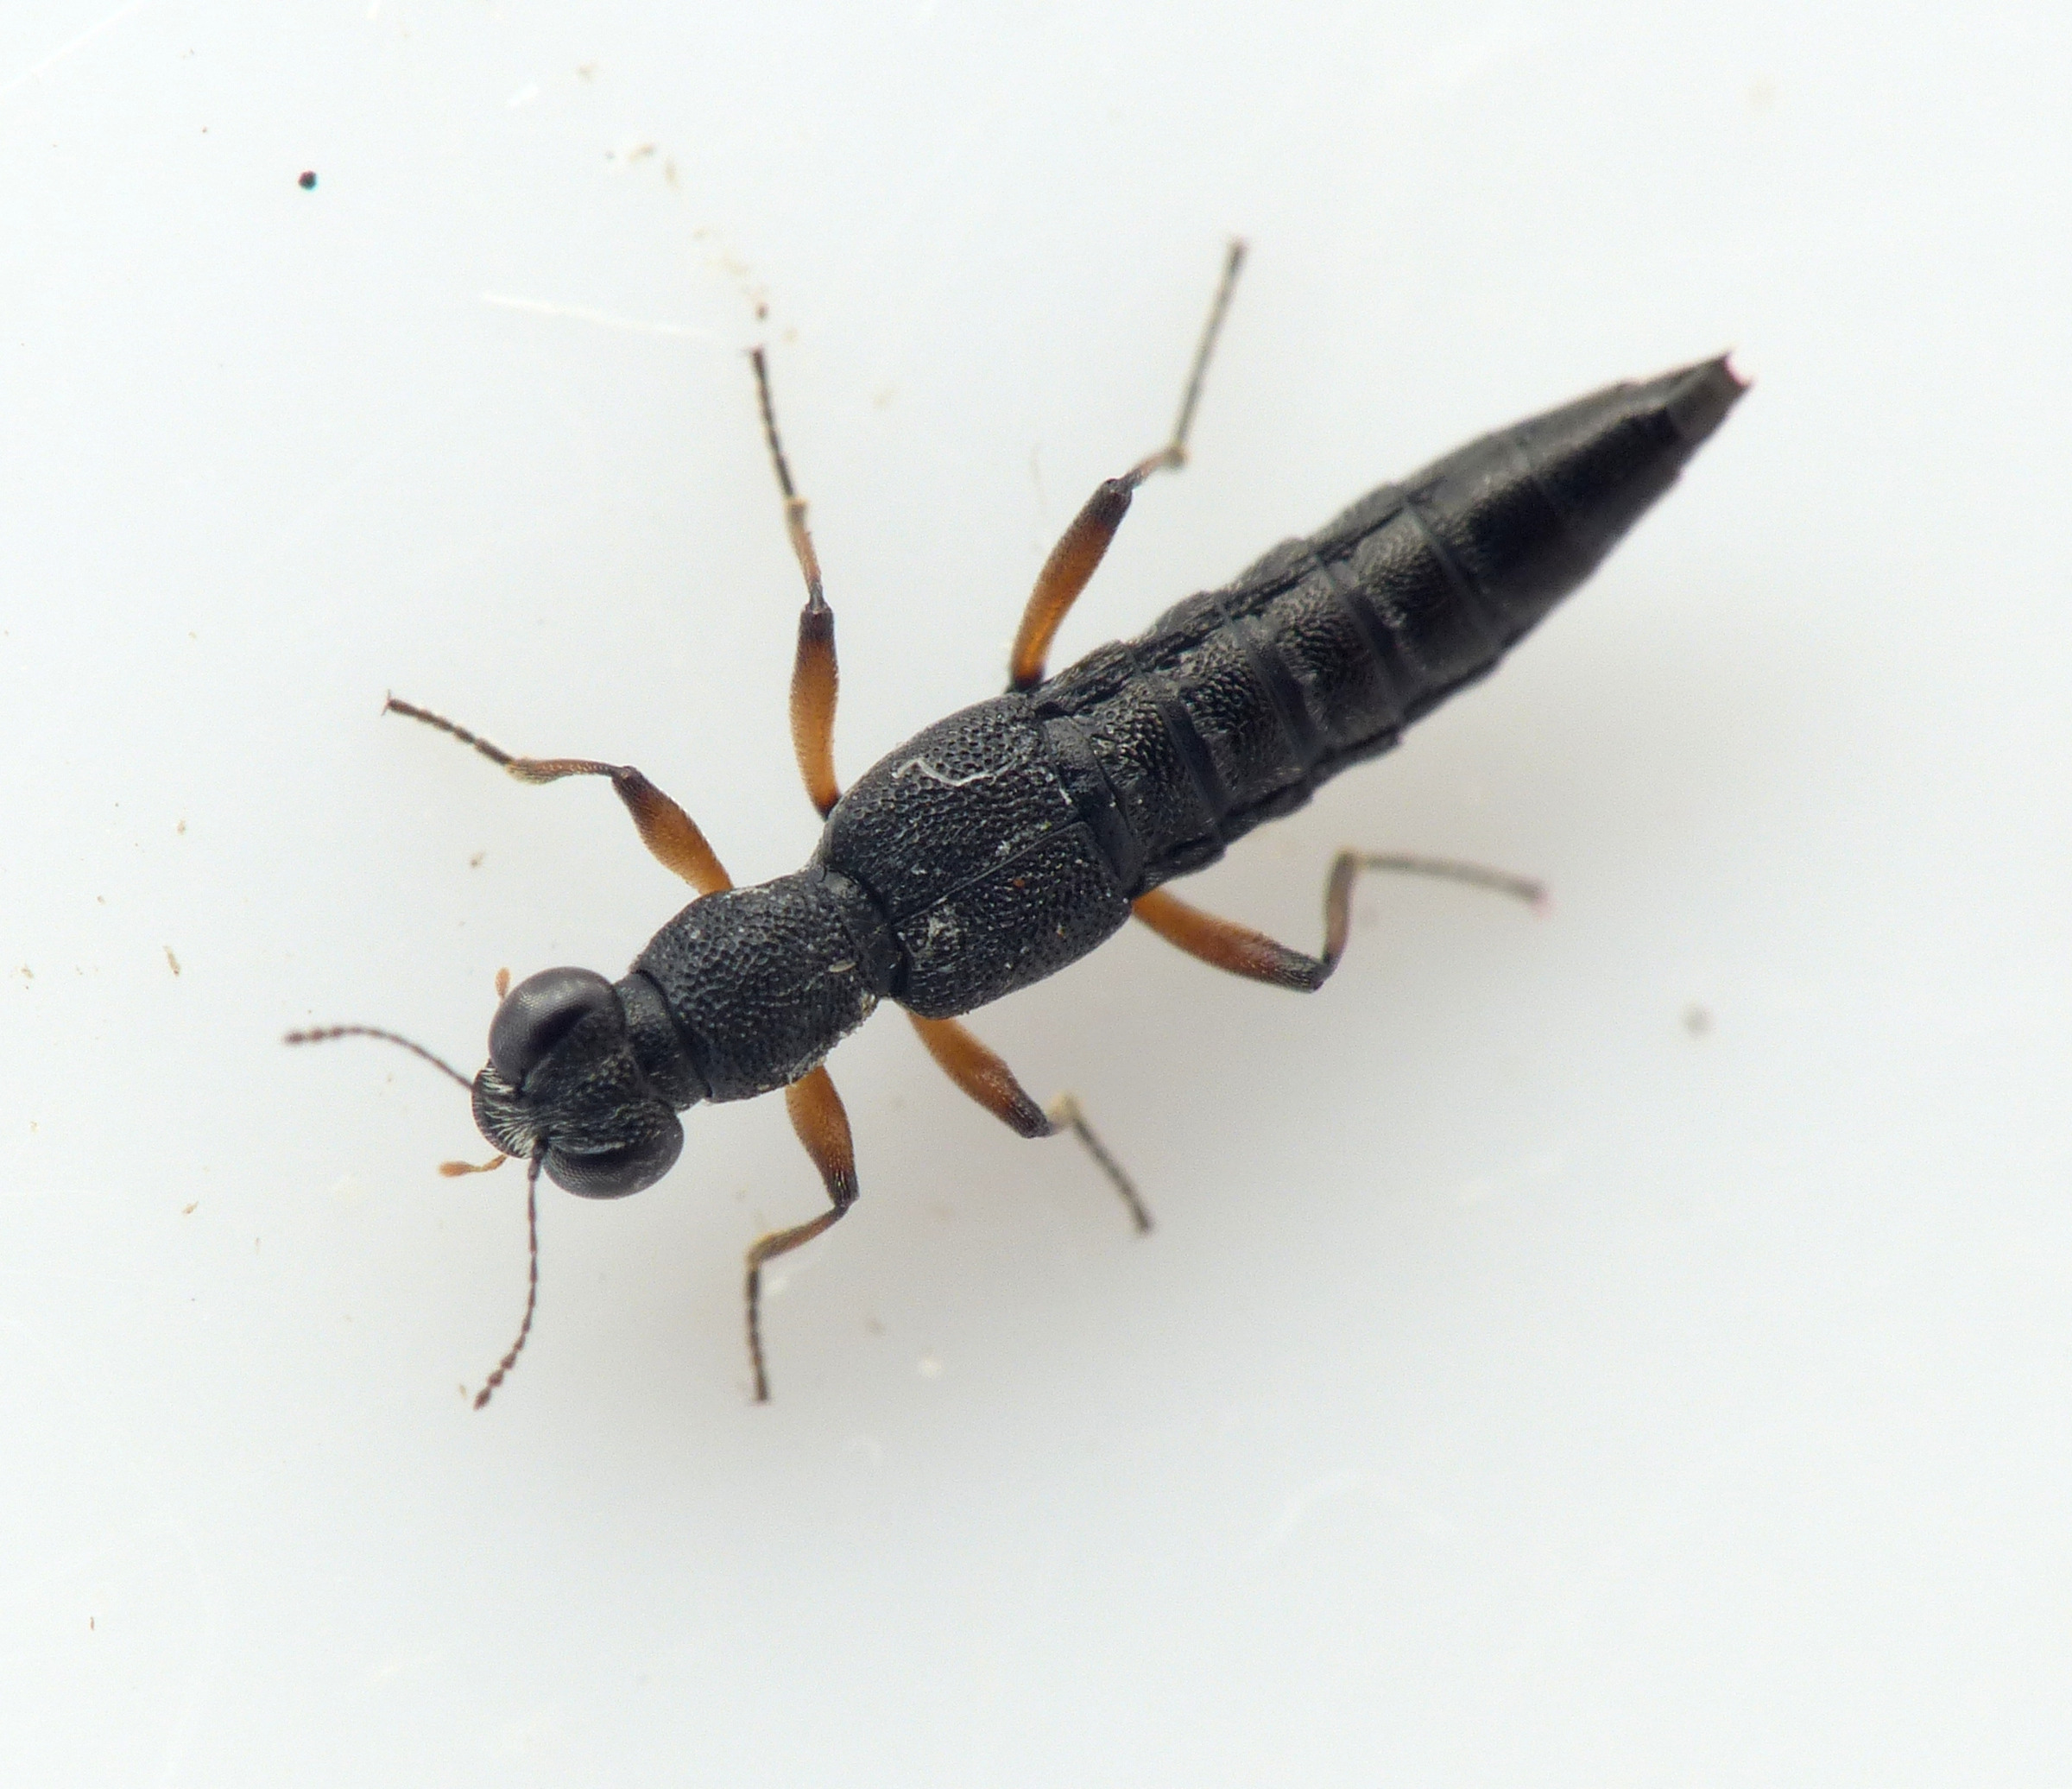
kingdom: Animalia
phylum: Arthropoda
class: Insecta
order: Coleoptera
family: Staphylinidae
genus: Stenus
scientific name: Stenus clavicornis
